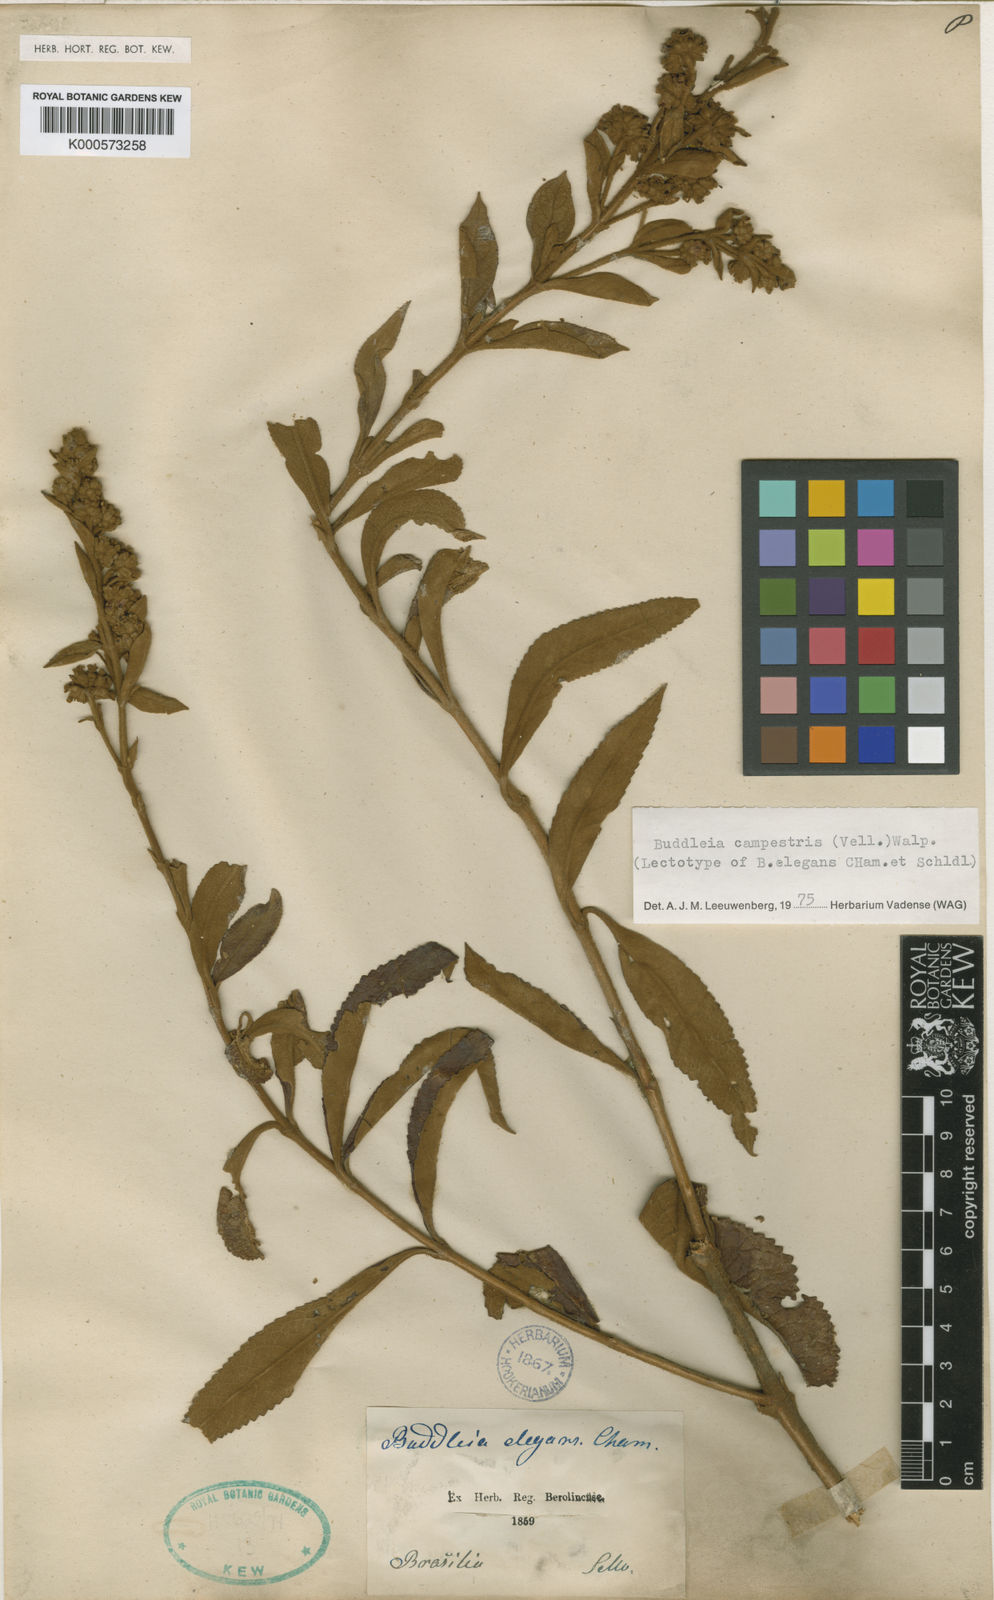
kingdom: Plantae
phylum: Tracheophyta
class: Magnoliopsida
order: Lamiales
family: Scrophulariaceae
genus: Buddleja
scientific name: Buddleja elegans
